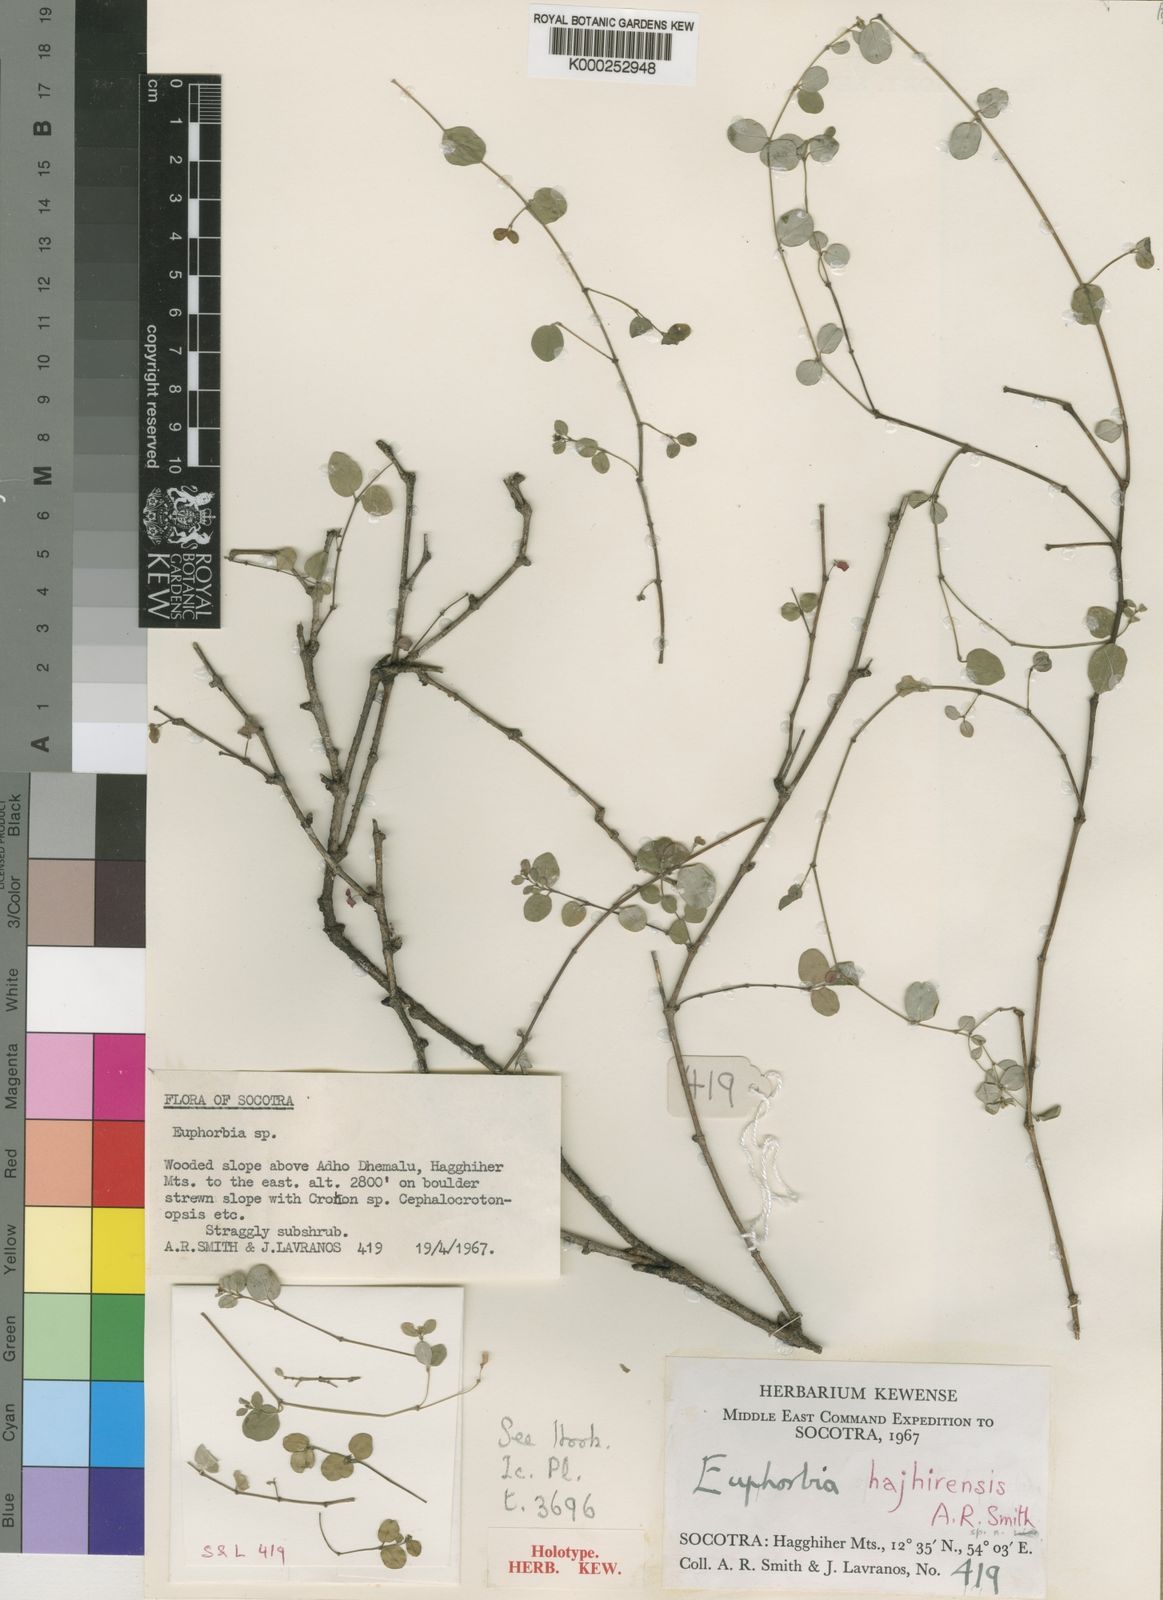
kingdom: Plantae
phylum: Tracheophyta
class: Magnoliopsida
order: Malpighiales
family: Euphorbiaceae
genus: Euphorbia
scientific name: Euphorbia hajhirensis
